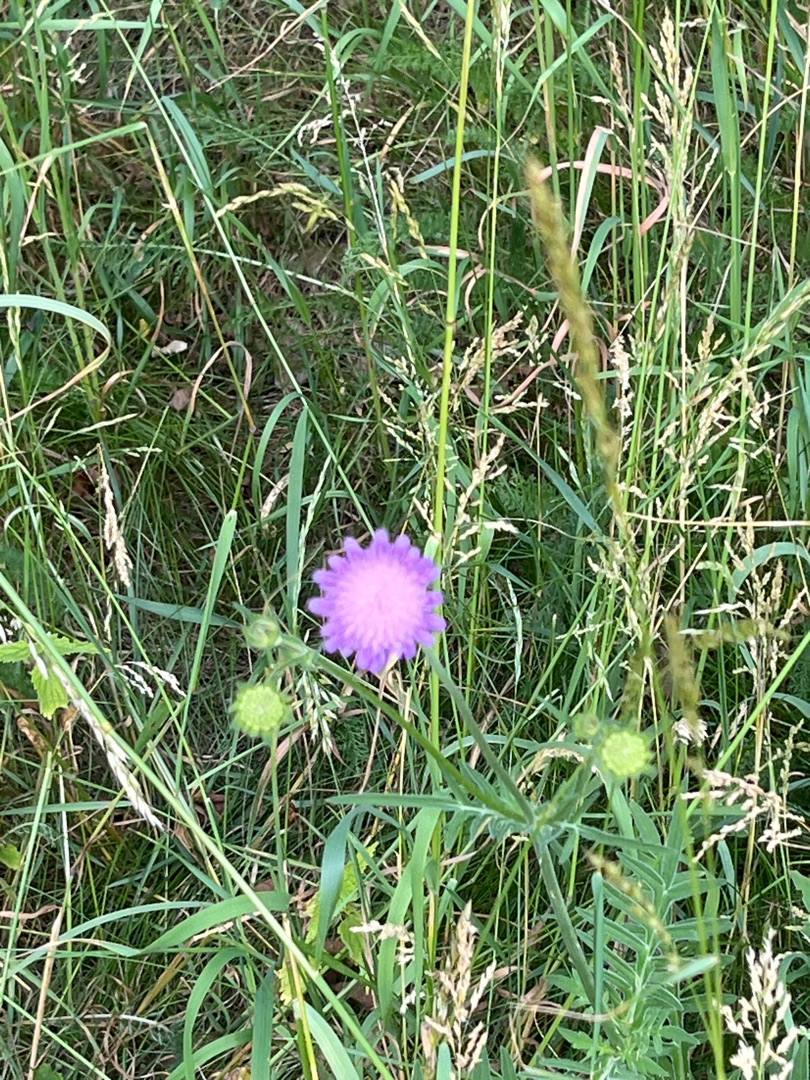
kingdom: Plantae
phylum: Tracheophyta
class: Magnoliopsida
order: Dipsacales
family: Caprifoliaceae
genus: Knautia
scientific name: Knautia arvensis
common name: Blåhat
